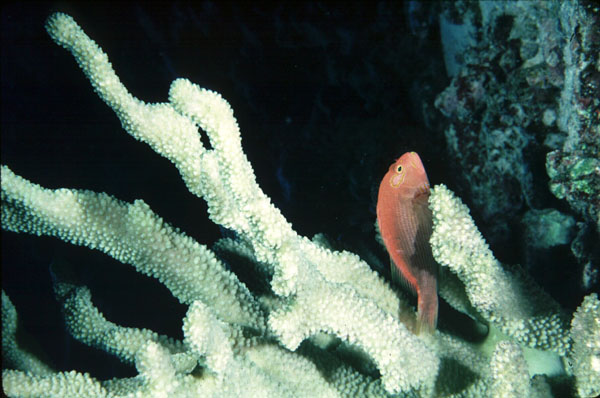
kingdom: Animalia
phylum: Chordata
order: Perciformes
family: Cirrhitidae
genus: Paracirrhites
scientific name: Paracirrhites arcatus
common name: Arc-eye hawkfish
